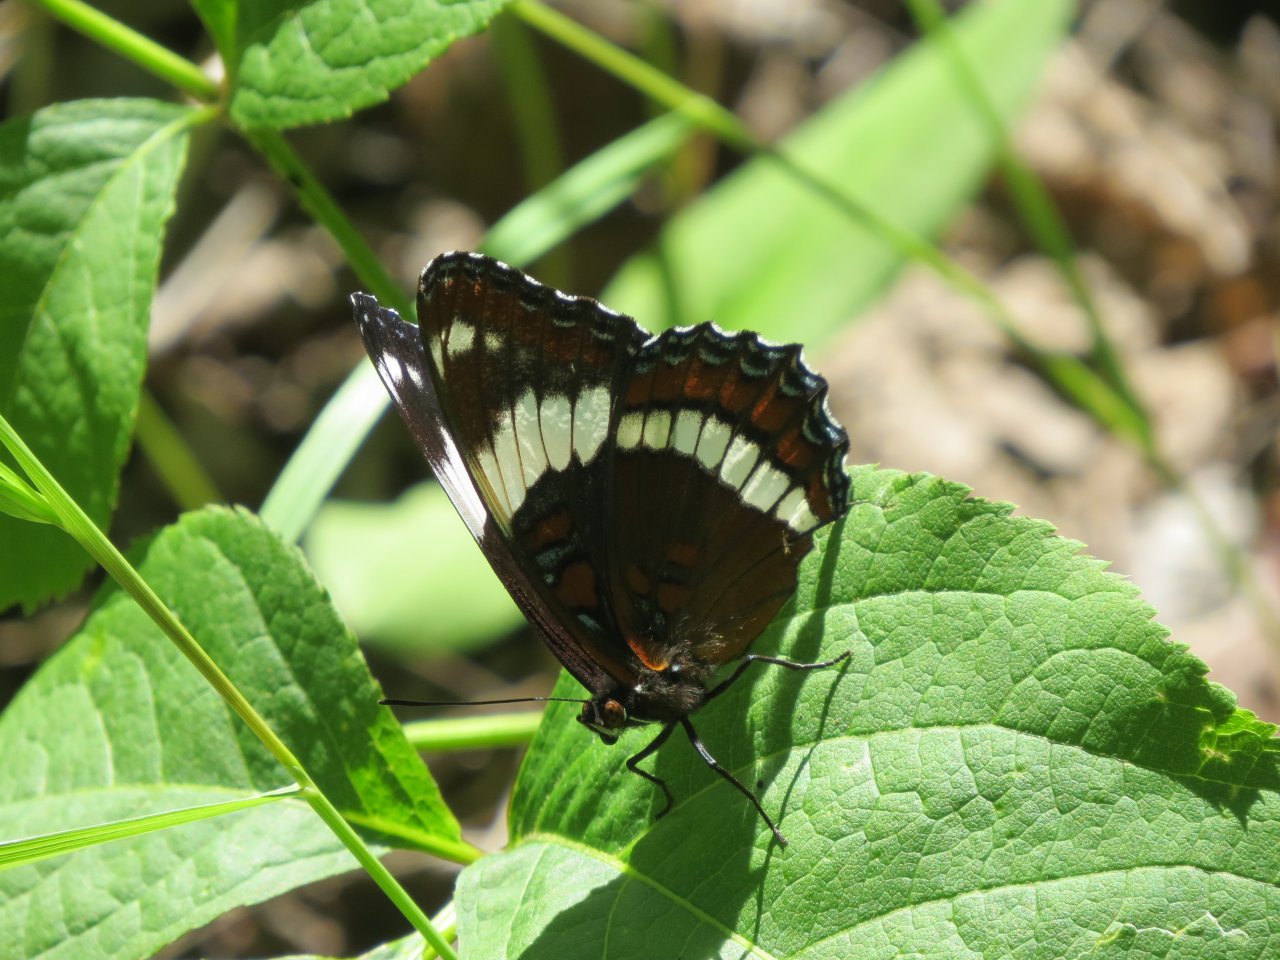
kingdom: Animalia
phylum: Arthropoda
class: Insecta
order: Lepidoptera
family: Nymphalidae
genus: Limenitis
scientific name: Limenitis arthemis
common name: Red-spotted Admiral
